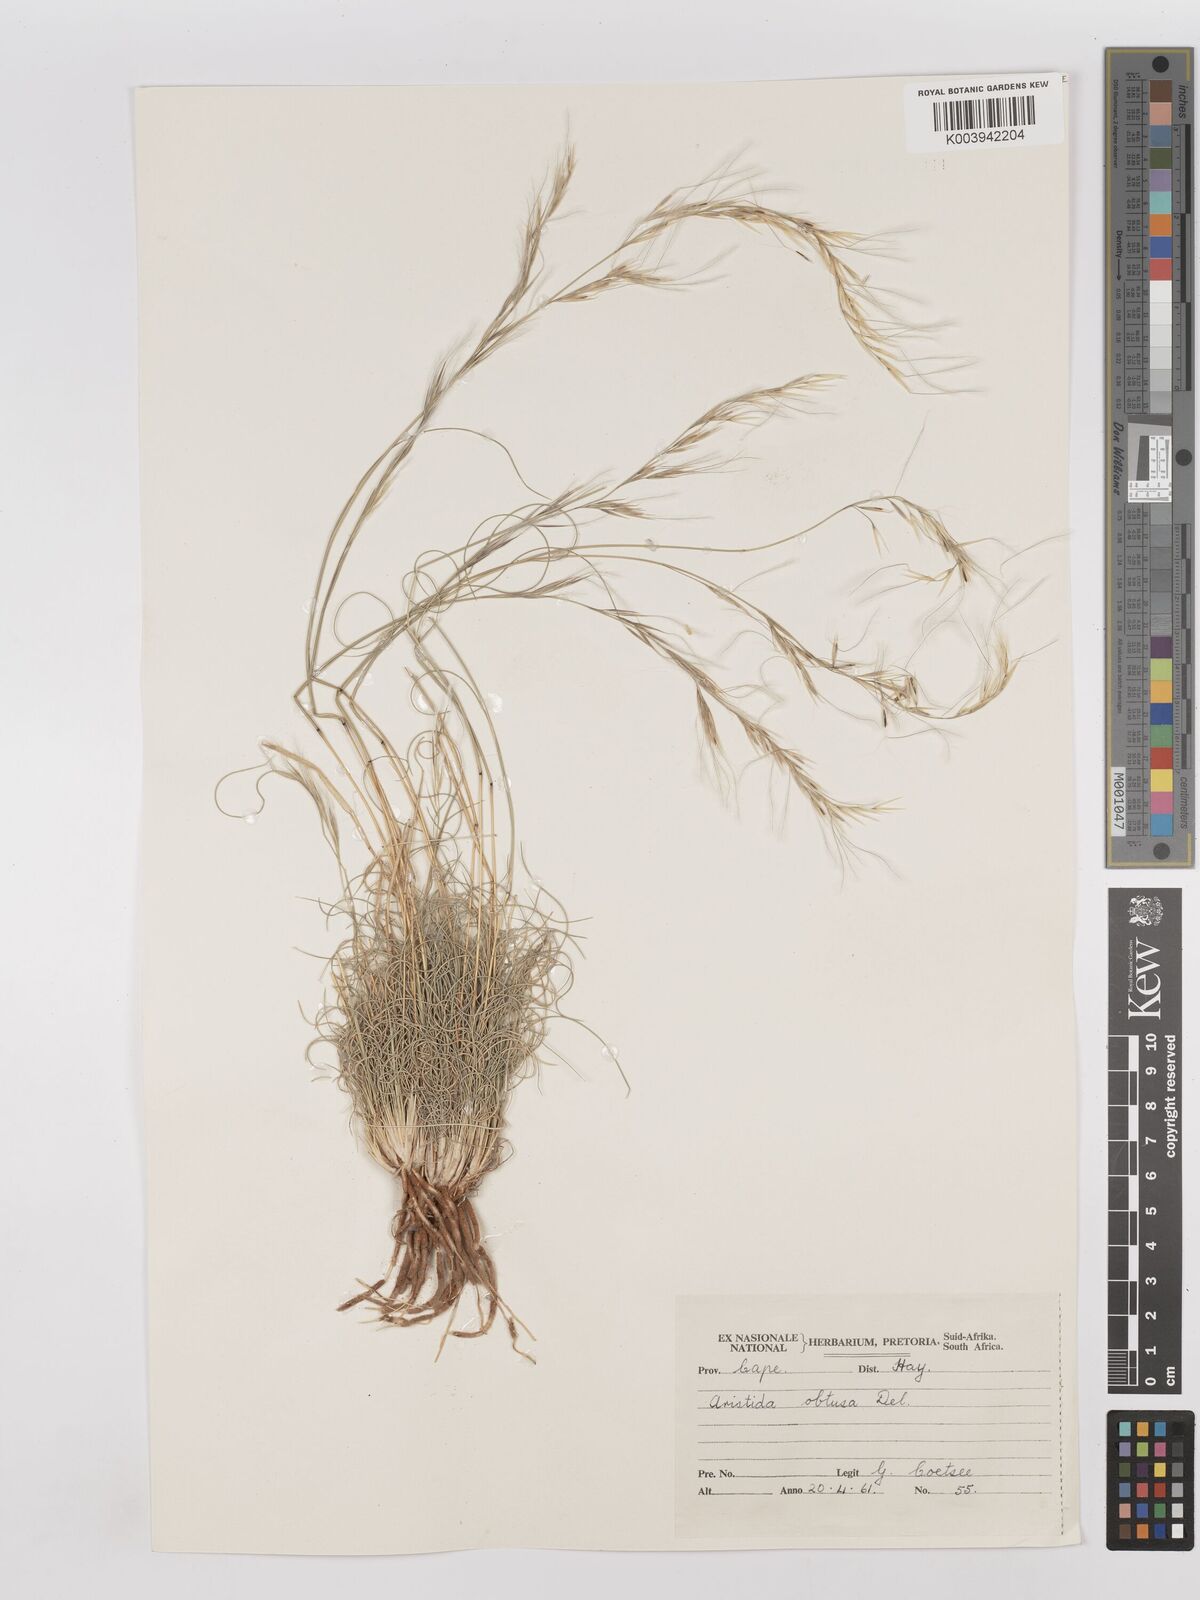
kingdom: Plantae
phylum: Tracheophyta
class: Liliopsida
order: Poales
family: Poaceae
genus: Stipagrostis
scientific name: Stipagrostis obtusa
